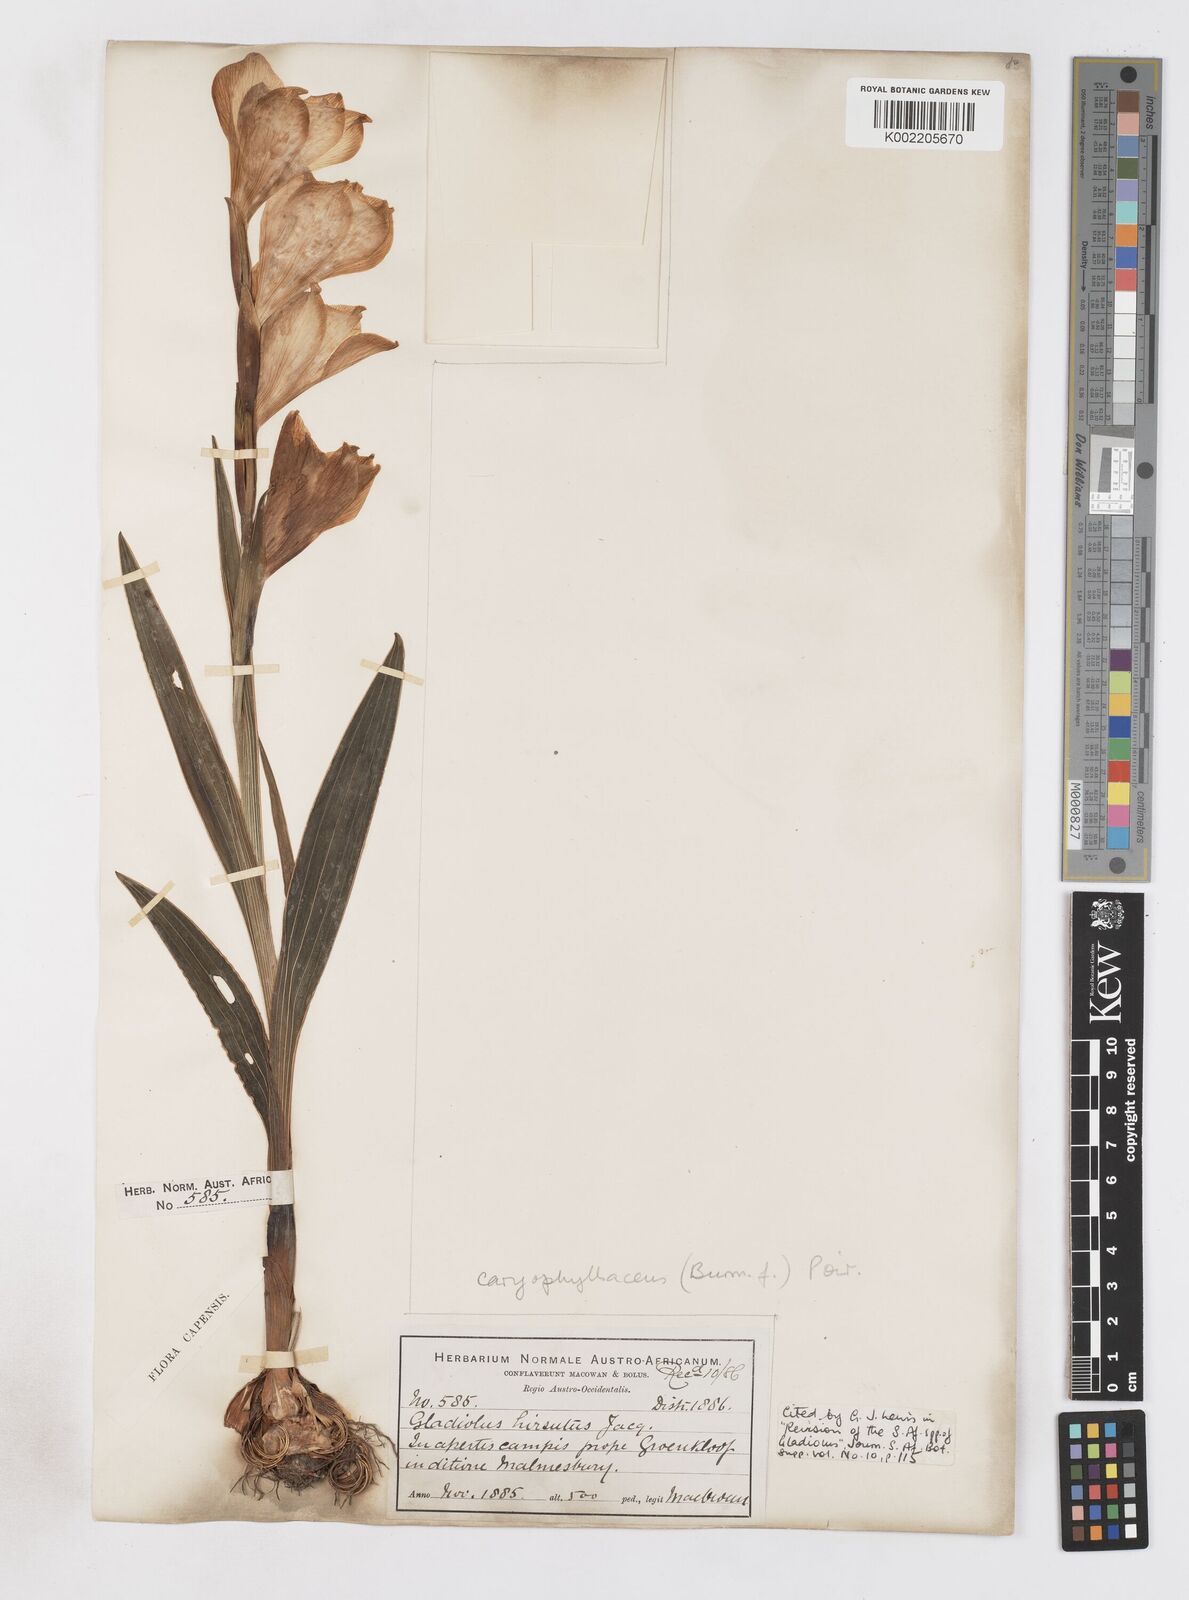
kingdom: Plantae
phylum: Tracheophyta
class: Liliopsida
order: Asparagales
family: Iridaceae
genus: Gladiolus
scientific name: Gladiolus caryophyllaceus
